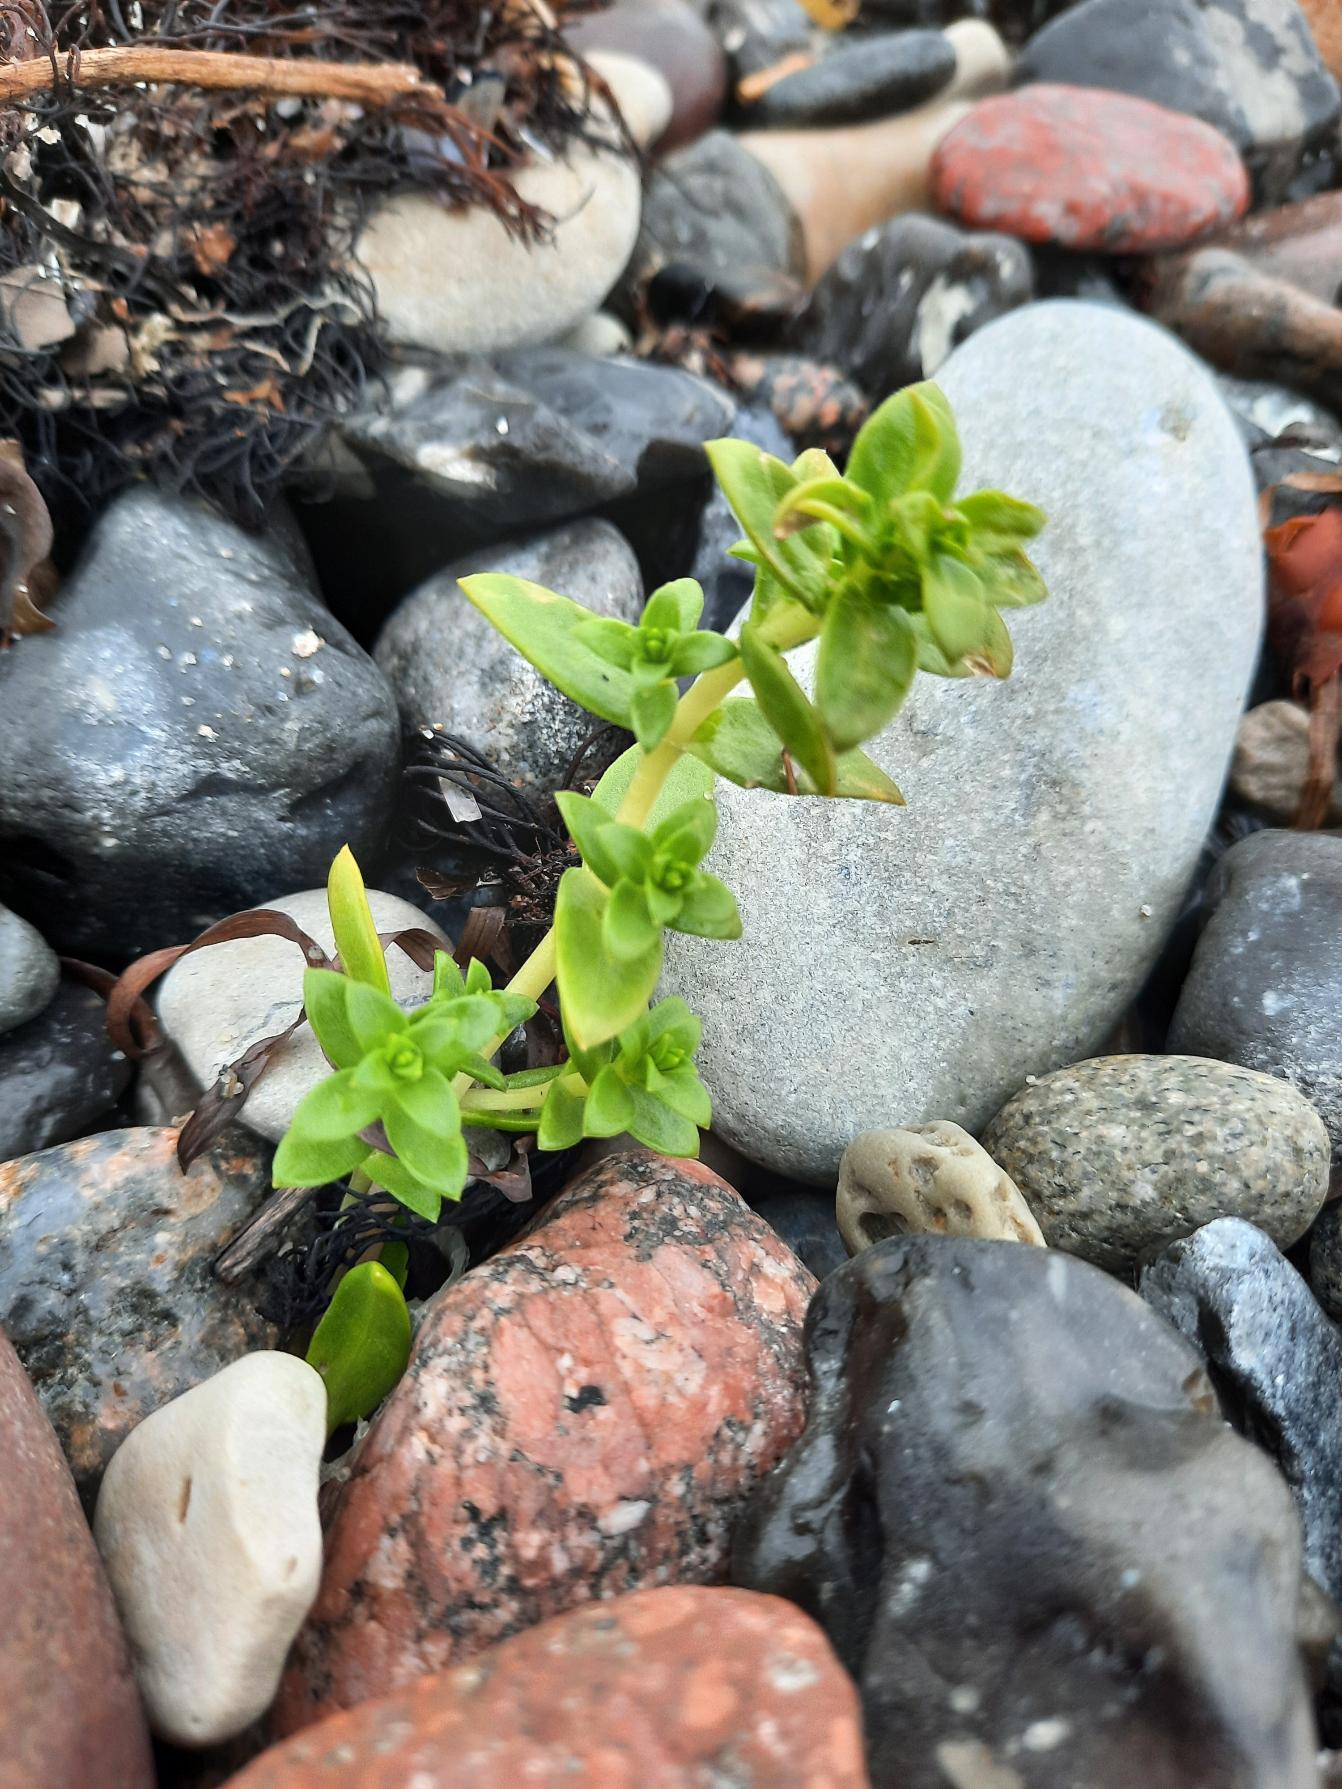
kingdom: Plantae
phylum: Tracheophyta
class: Magnoliopsida
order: Caryophyllales
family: Caryophyllaceae
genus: Honckenya
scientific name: Honckenya peploides
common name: Strandarve
